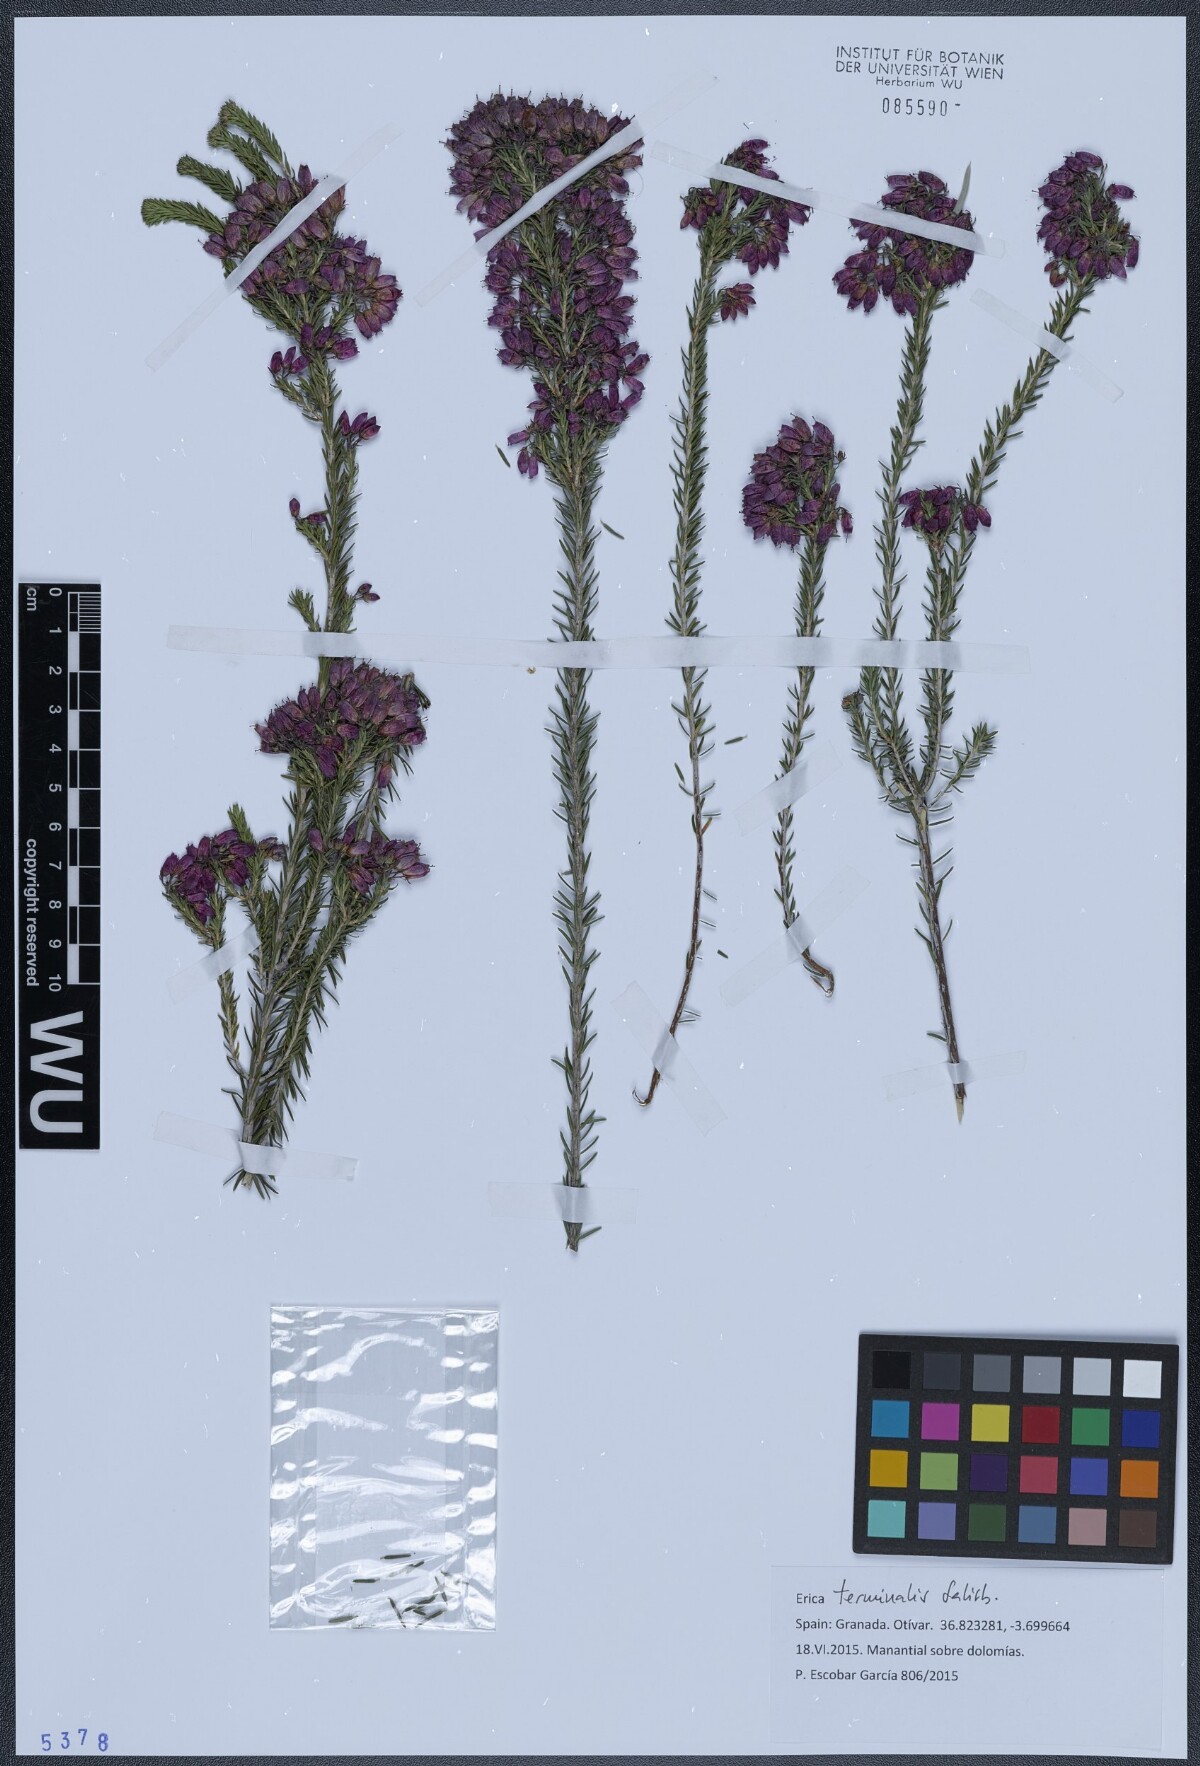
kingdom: Plantae
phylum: Tracheophyta
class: Magnoliopsida
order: Ericales
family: Ericaceae
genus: Erica
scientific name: Erica terminalis
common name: Corsican heath
